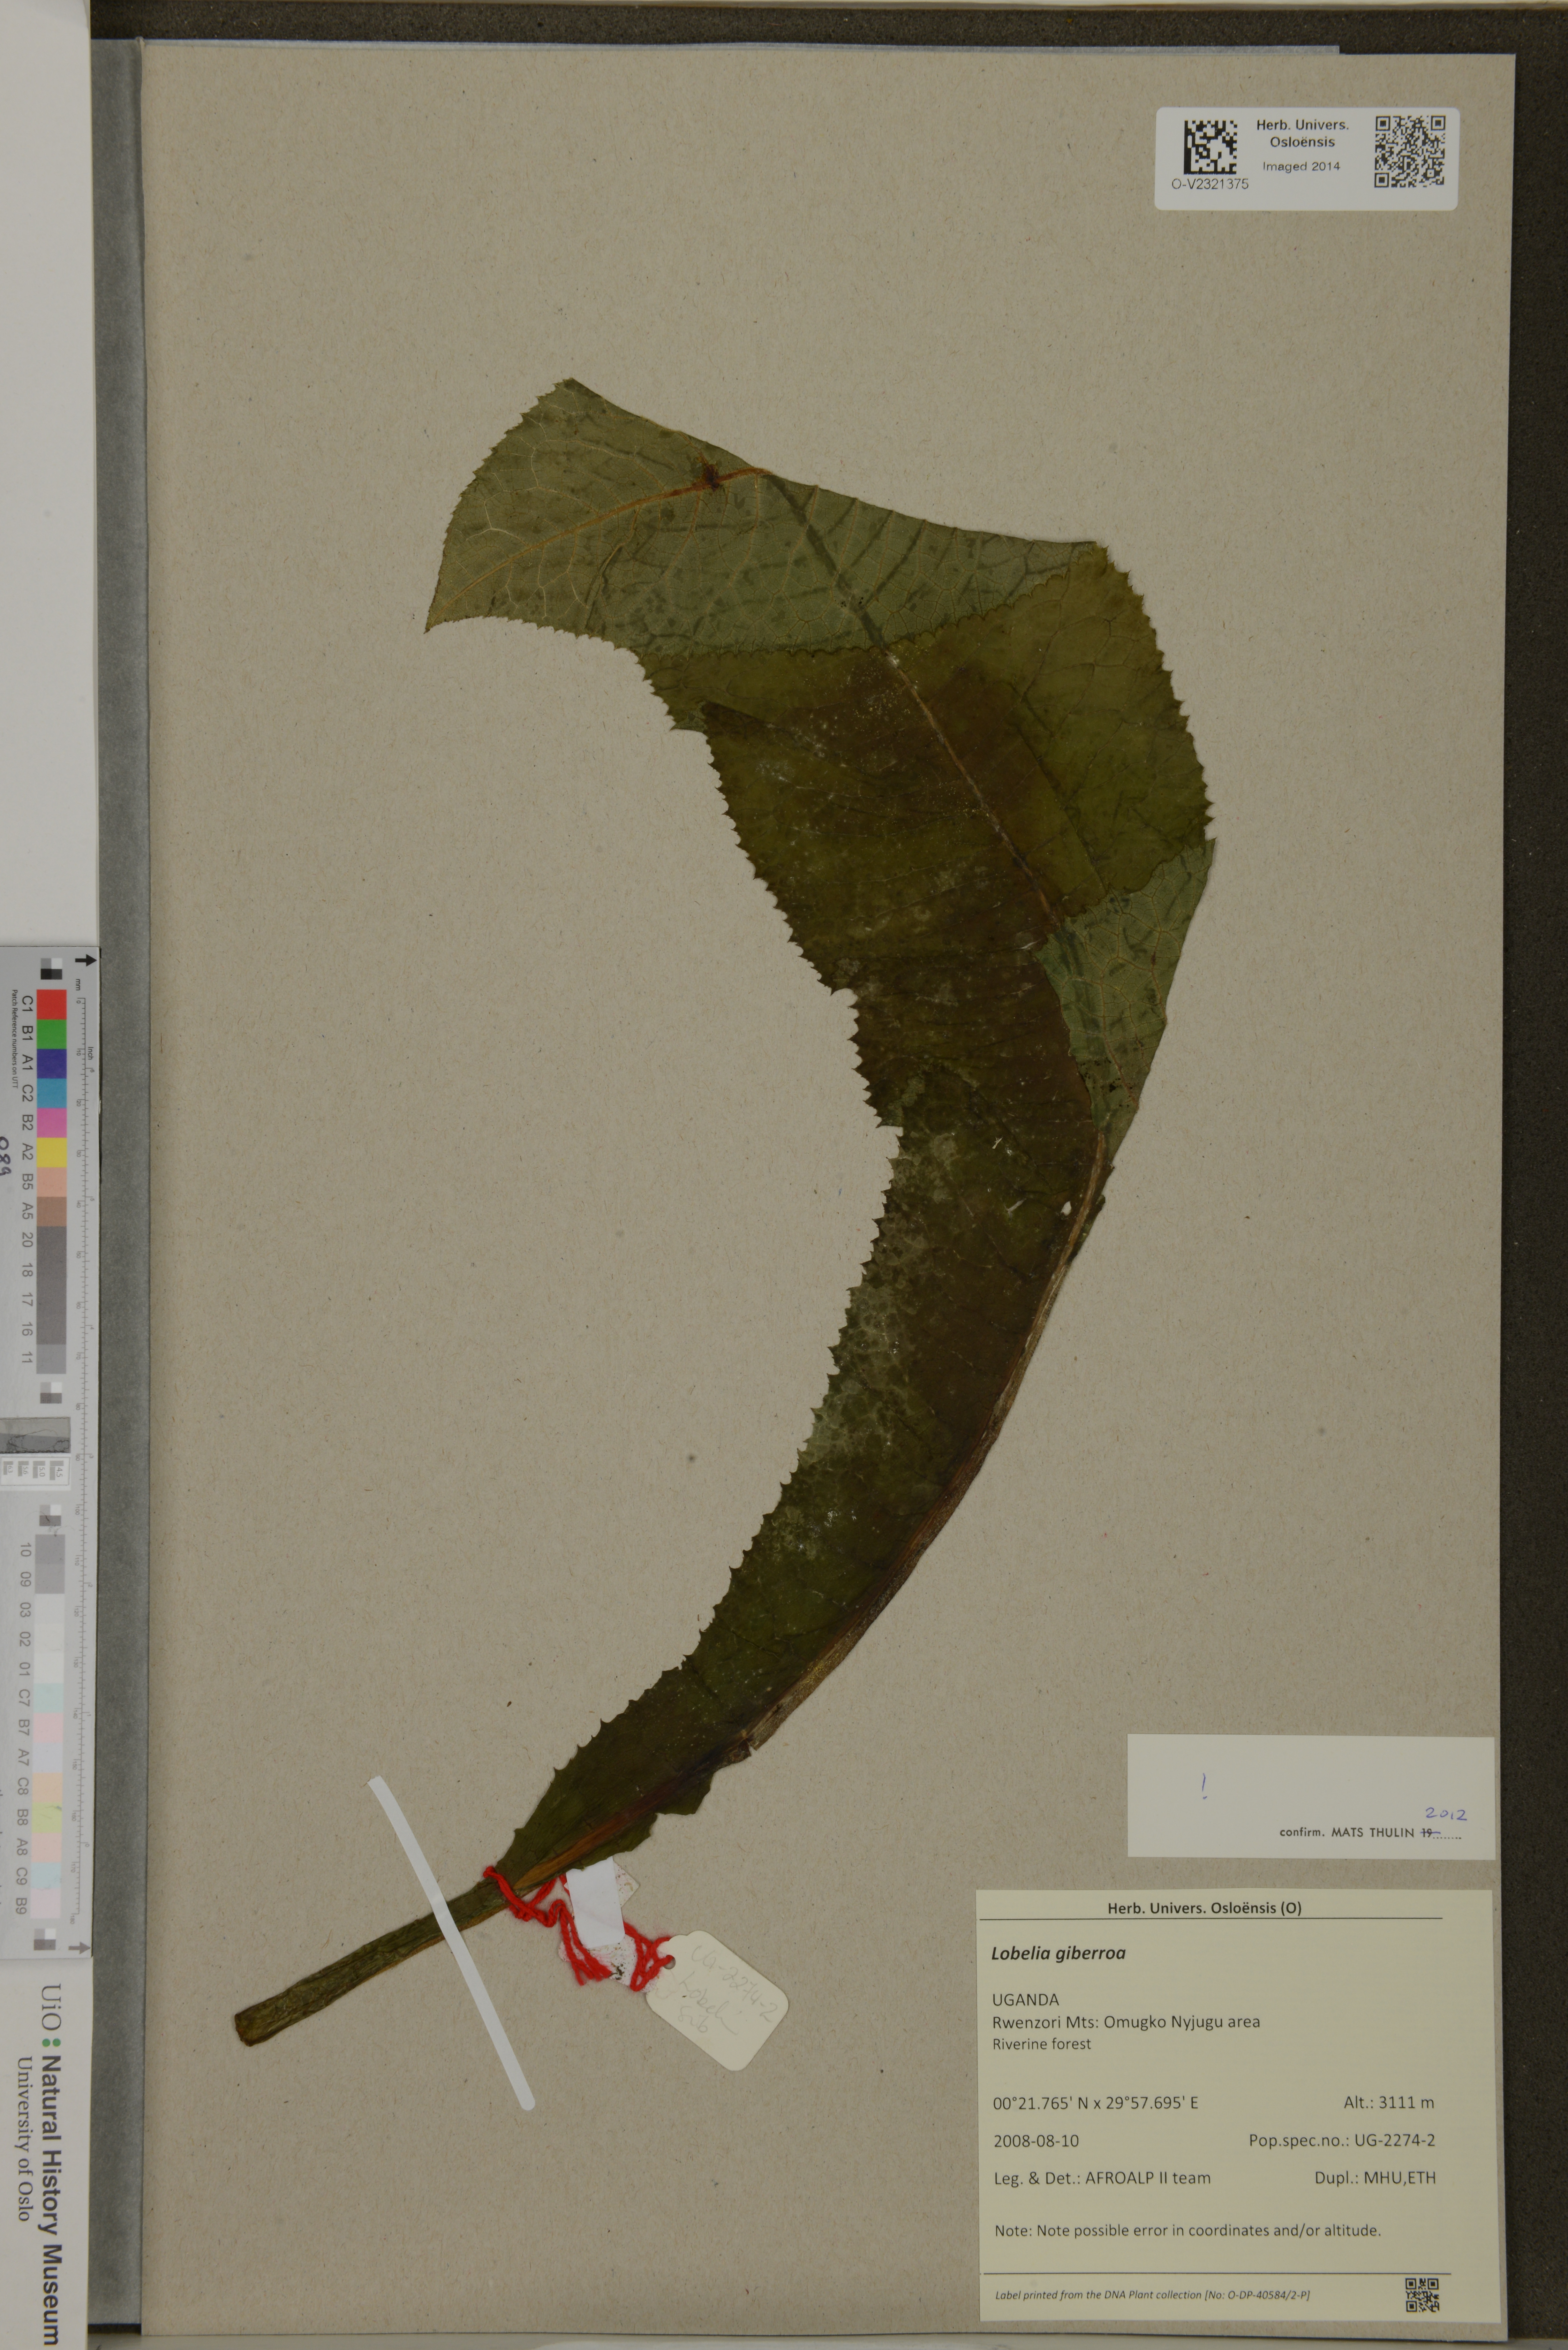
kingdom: Plantae
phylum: Tracheophyta
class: Magnoliopsida
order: Asterales
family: Campanulaceae
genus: Lobelia
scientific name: Lobelia giberroa
